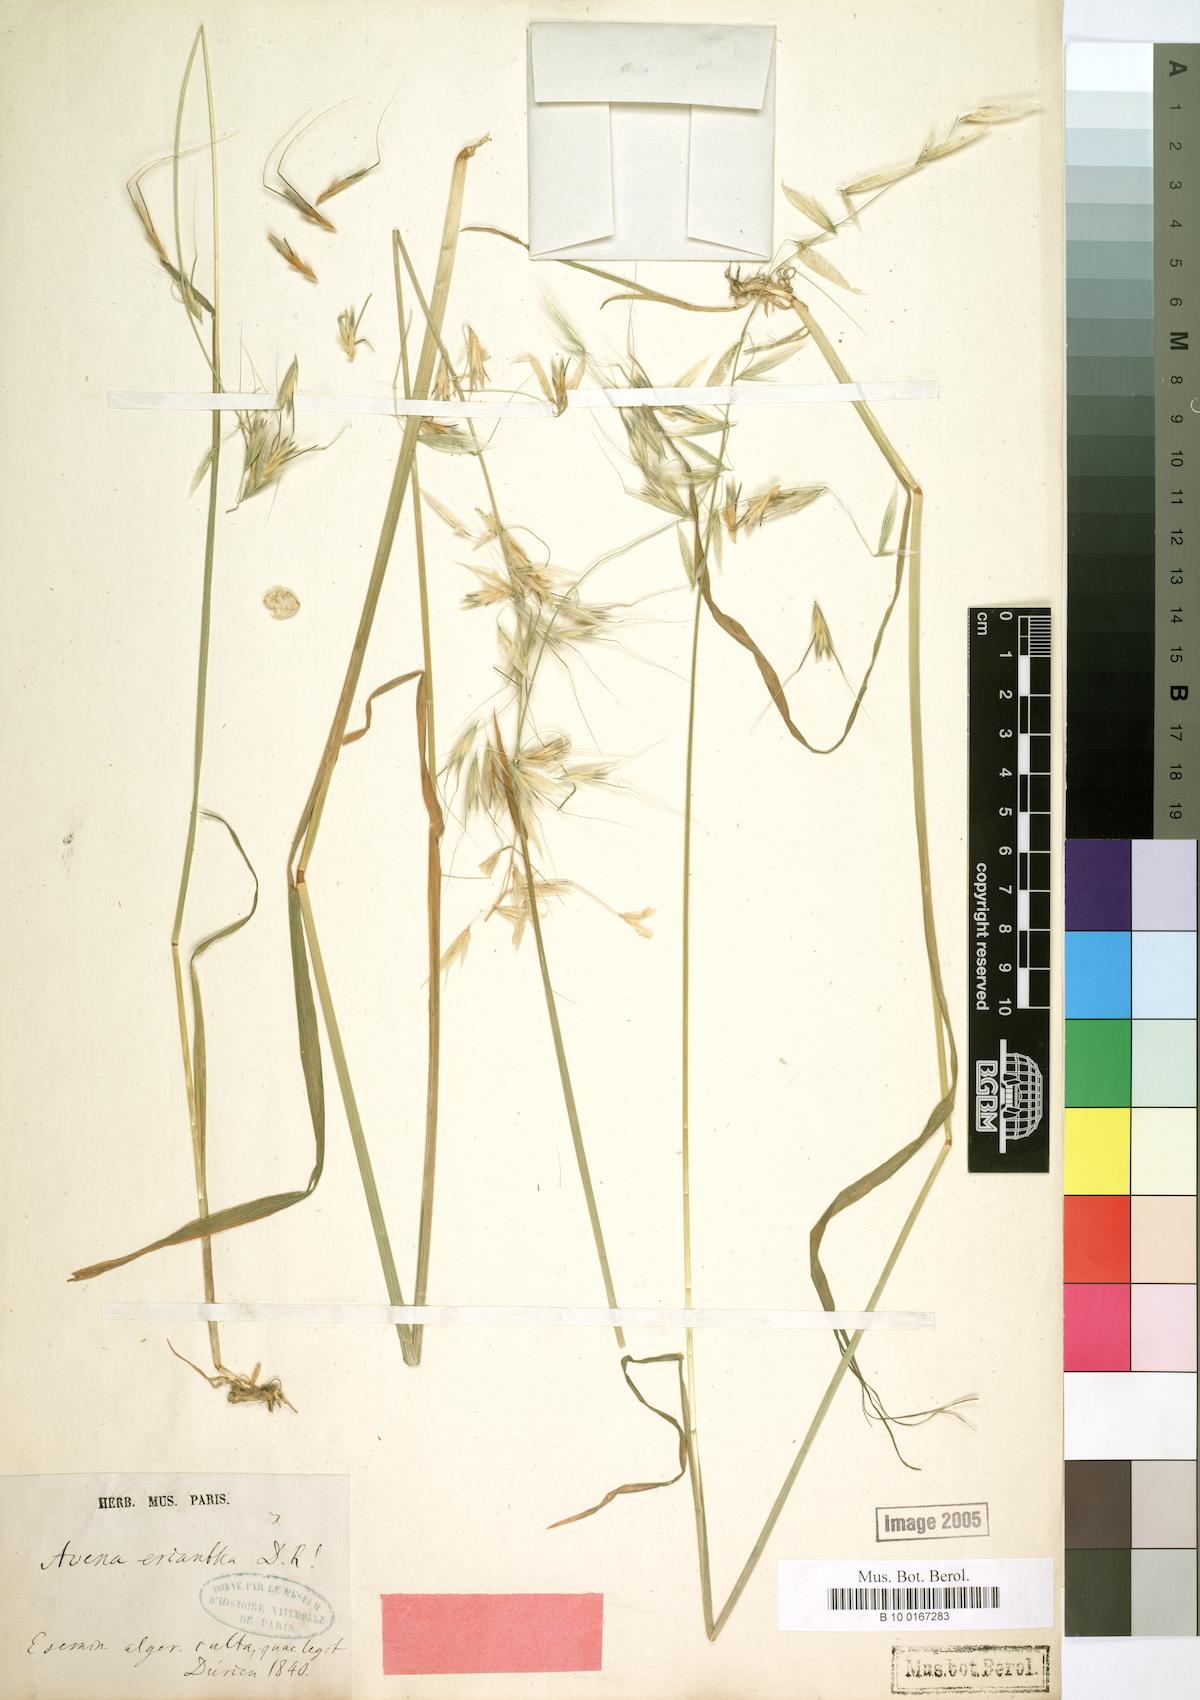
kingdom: Plantae
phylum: Tracheophyta
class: Liliopsida
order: Poales
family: Poaceae
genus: Avena
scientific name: Avena eriantha
